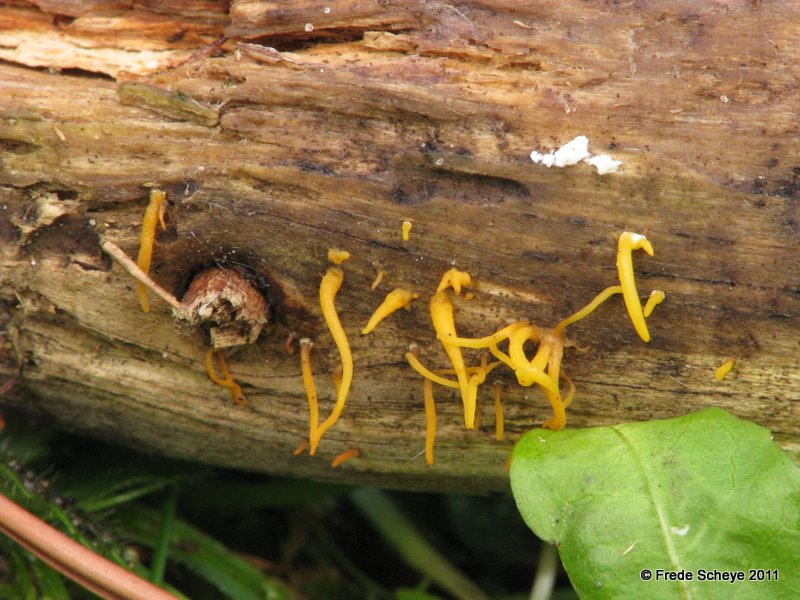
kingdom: Fungi
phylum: Basidiomycota
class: Dacrymycetes
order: Dacrymycetales
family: Dacrymycetaceae
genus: Calocera
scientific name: Calocera cornea
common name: liden guldgaffel
